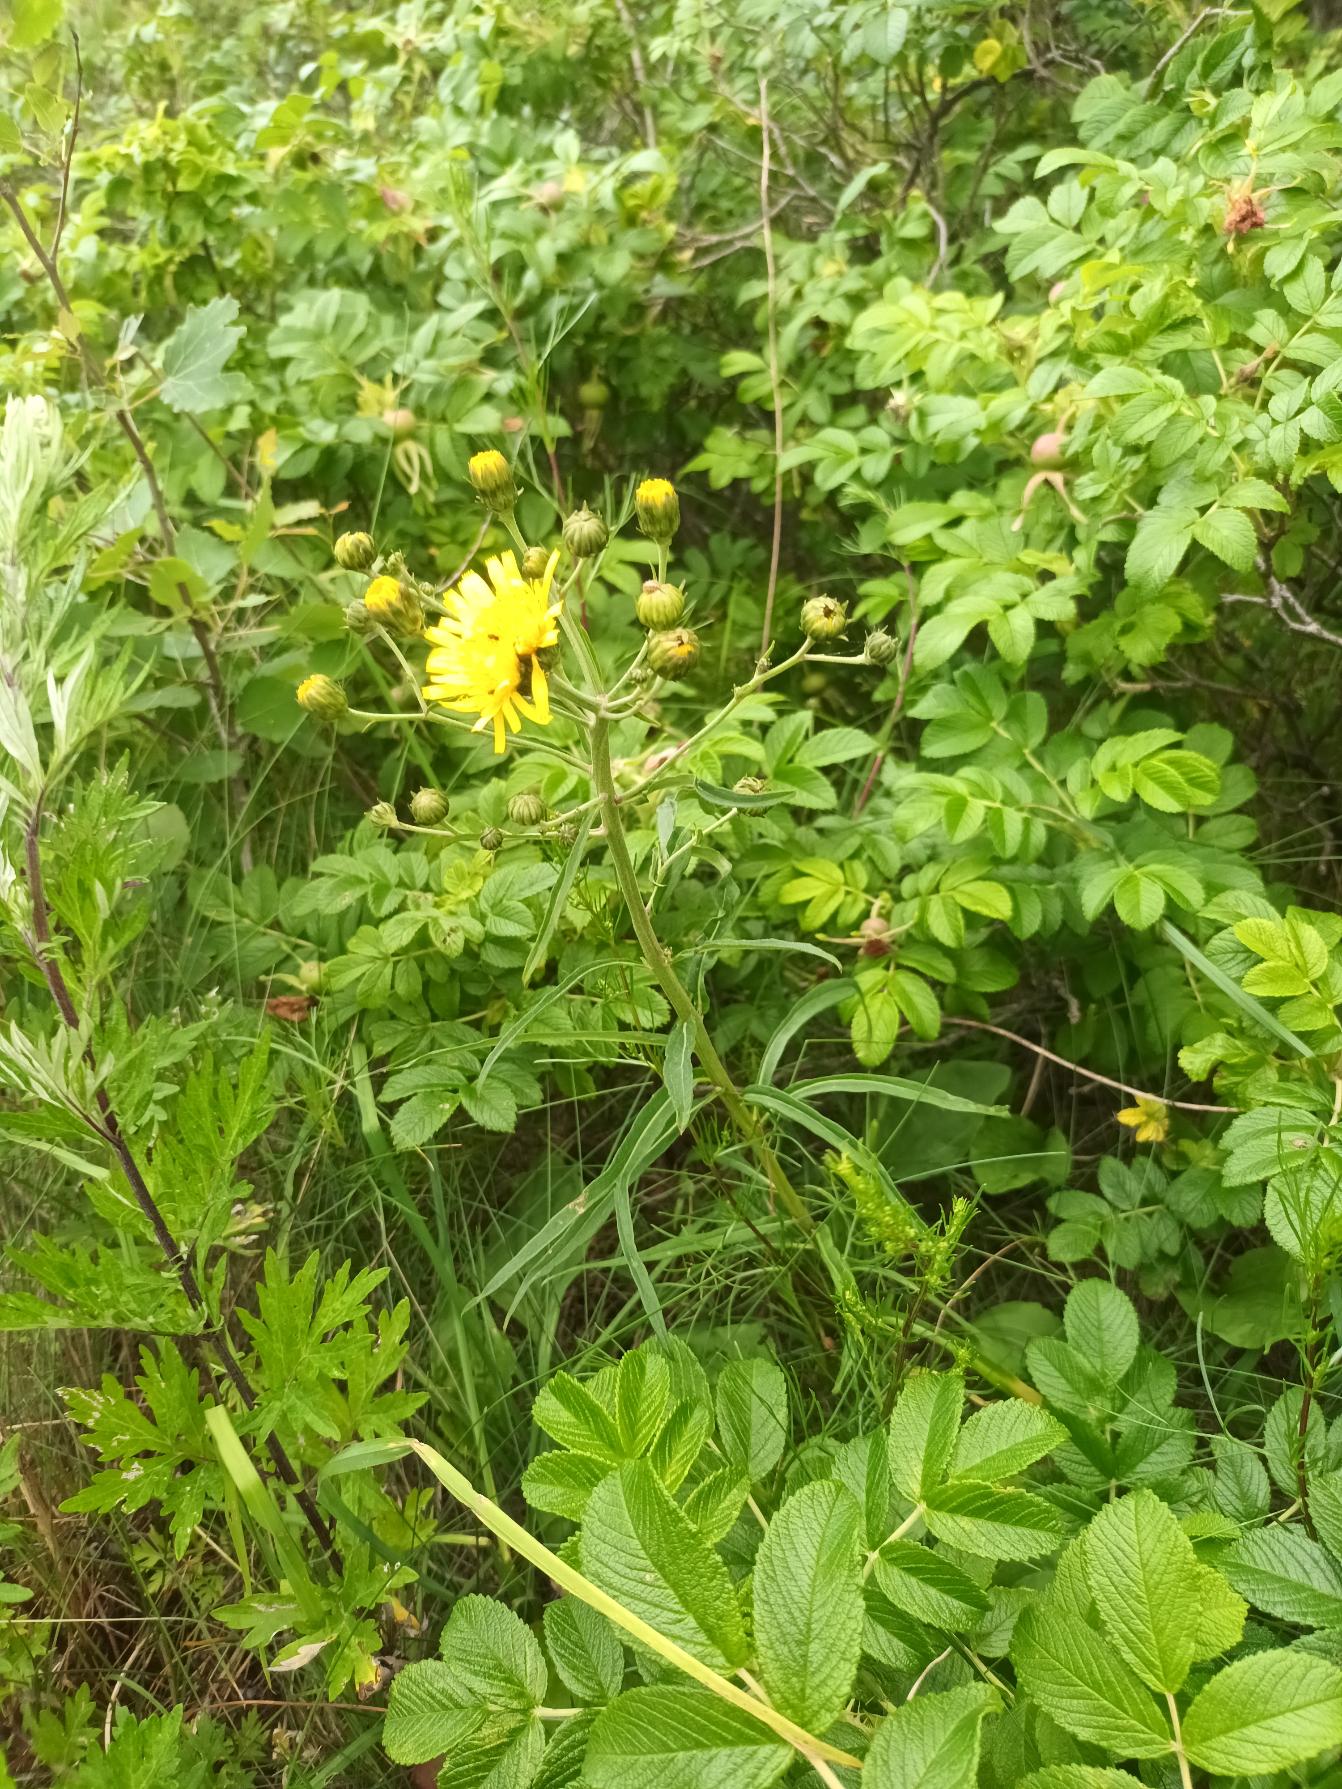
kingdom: Plantae
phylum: Tracheophyta
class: Magnoliopsida
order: Asterales
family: Asteraceae
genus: Hieracium
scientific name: Hieracium umbellatum
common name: Smalbladet høgeurt
